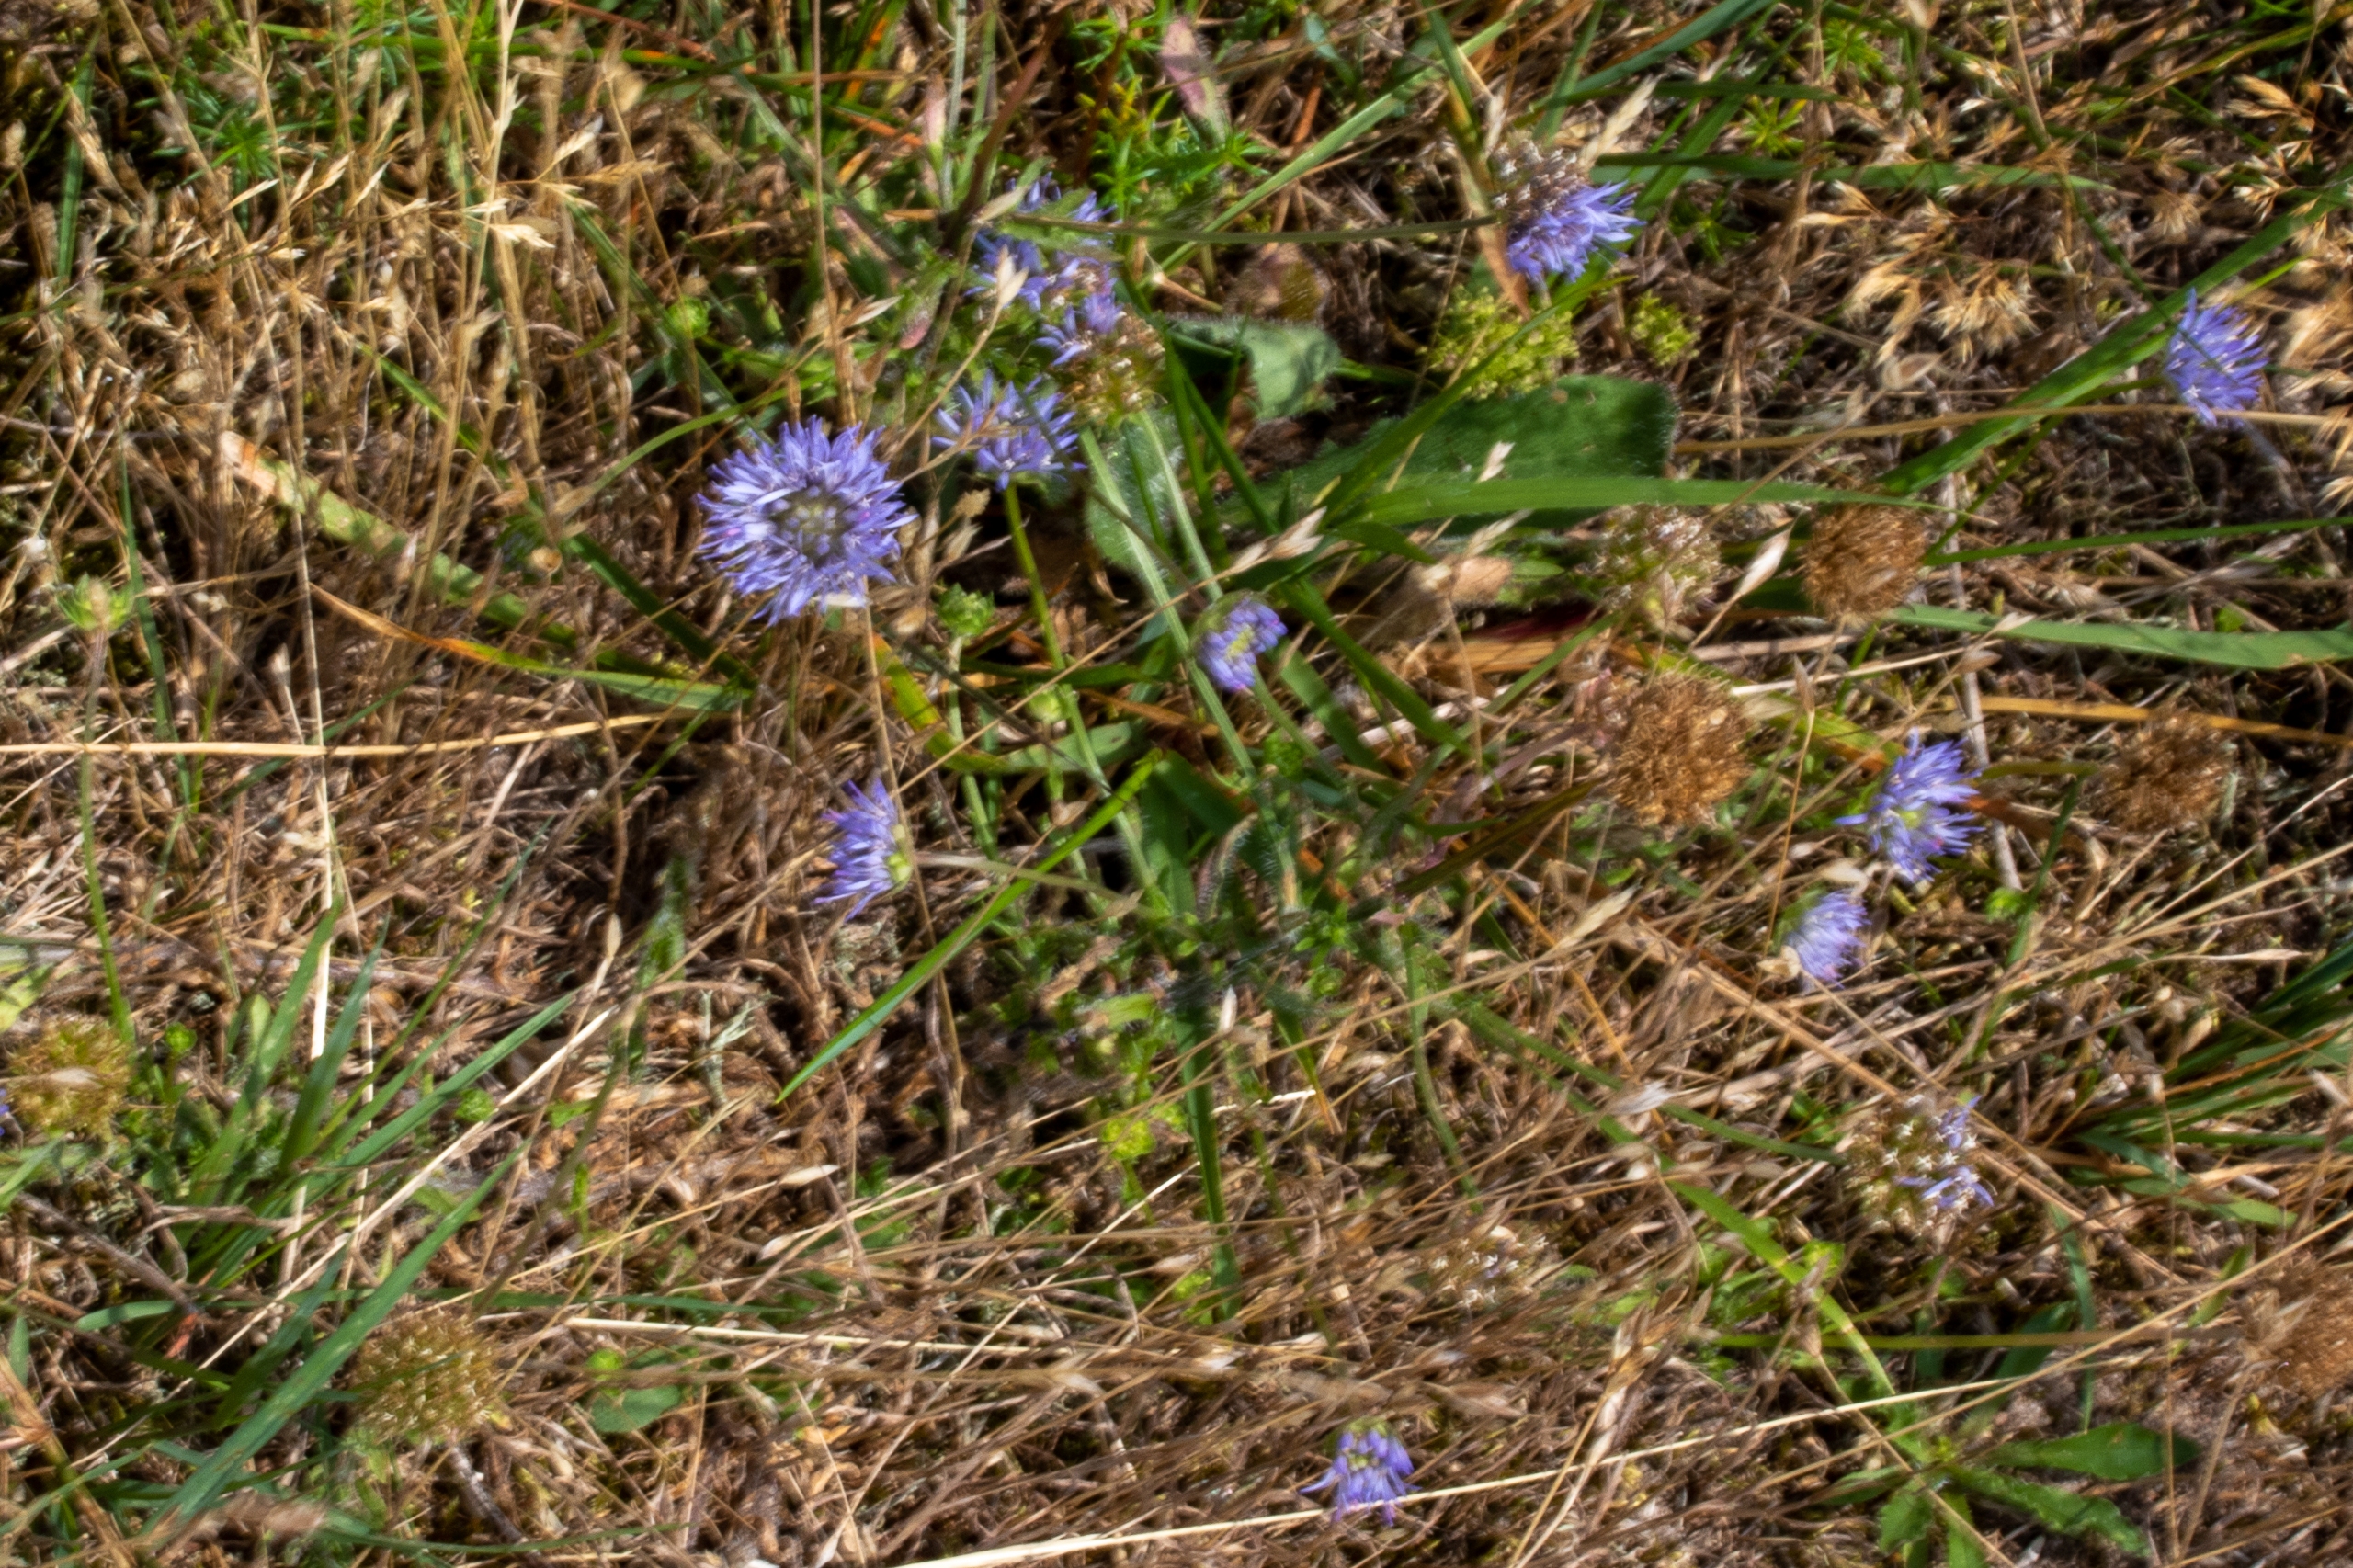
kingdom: Plantae
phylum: Tracheophyta
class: Magnoliopsida
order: Asterales
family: Campanulaceae
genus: Jasione
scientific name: Jasione montana
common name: Blåmunke
